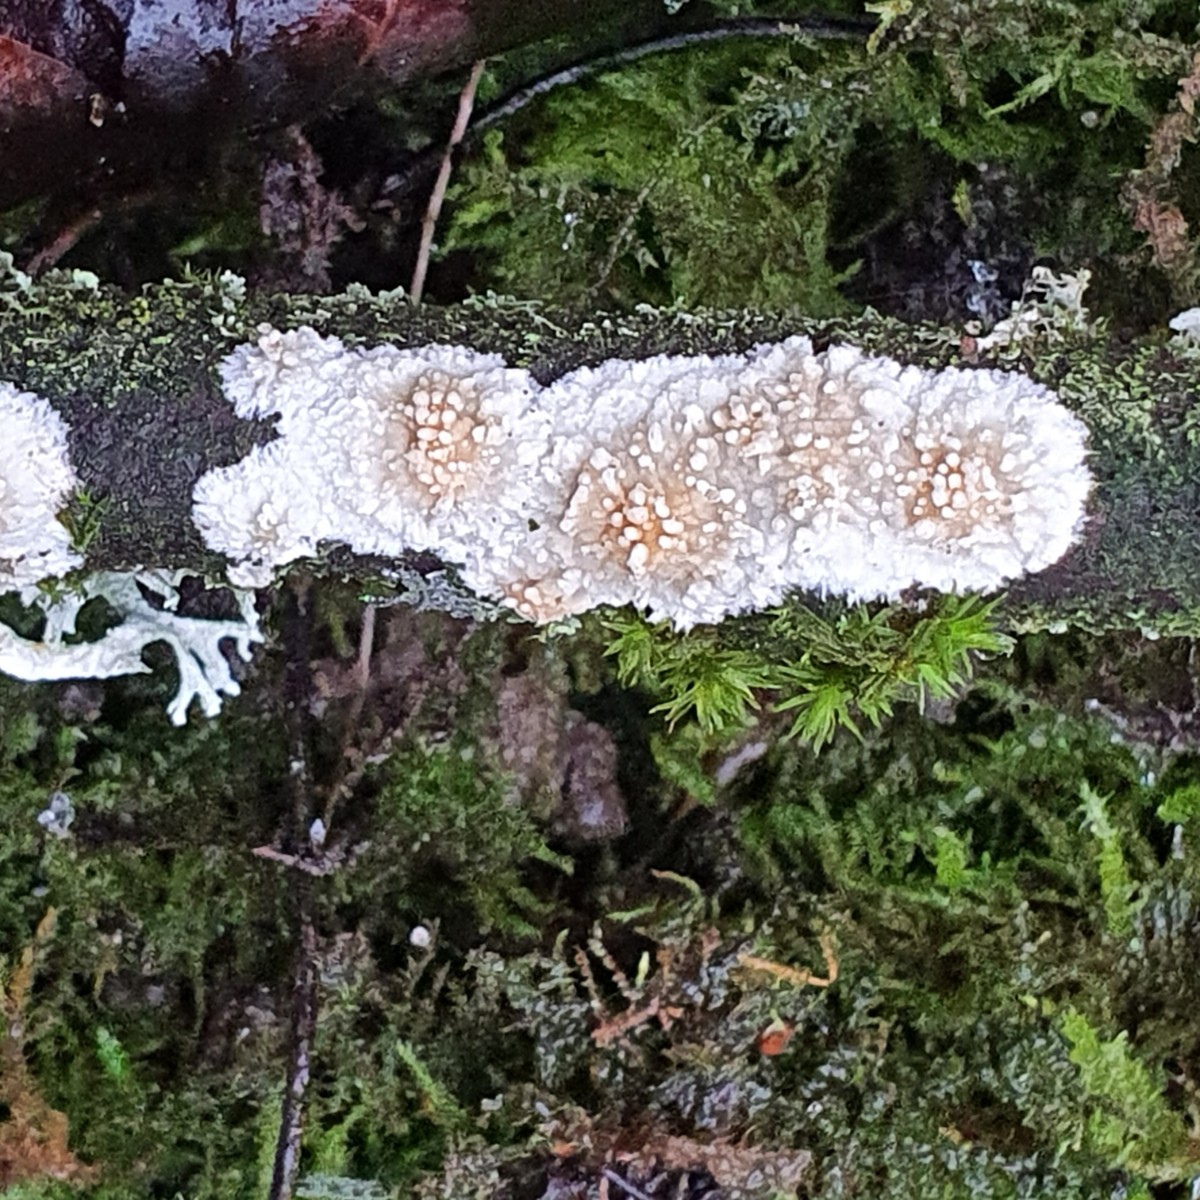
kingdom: Fungi
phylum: Basidiomycota
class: Agaricomycetes
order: Hymenochaetales
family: Schizoporaceae
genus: Xylodon
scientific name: Xylodon radula
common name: grovtandet kalkskind
